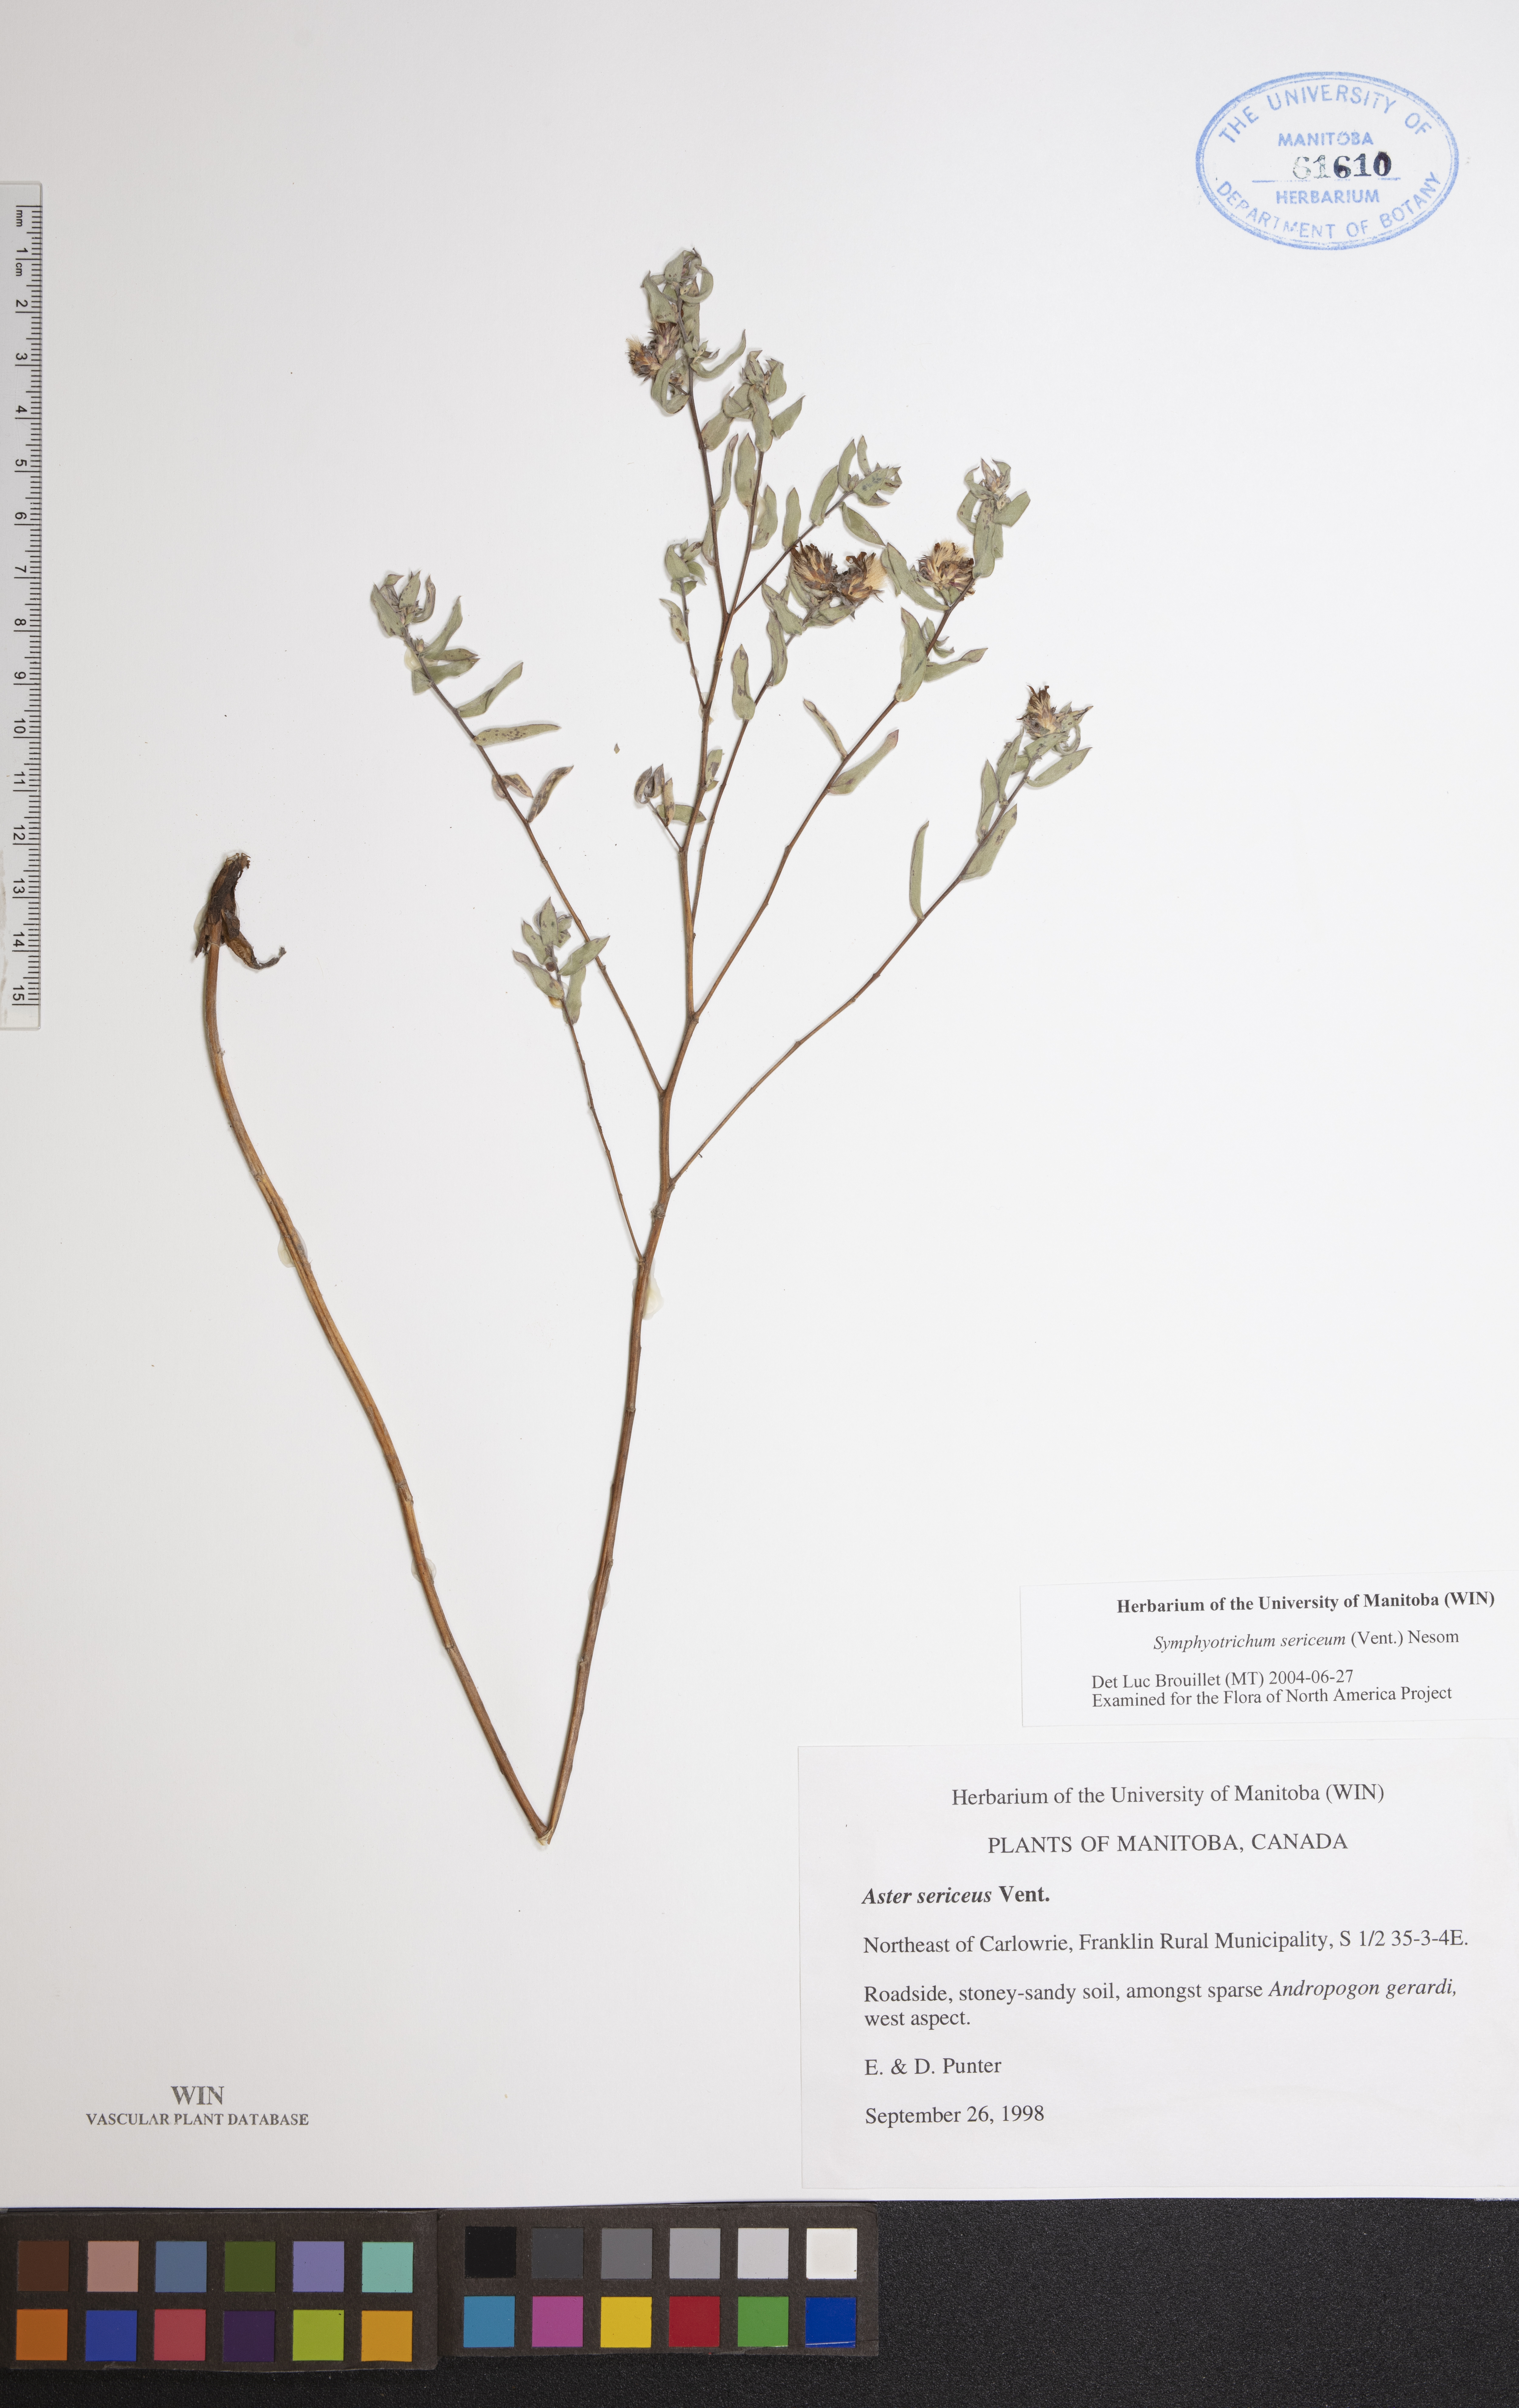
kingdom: Plantae
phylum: Tracheophyta
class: Magnoliopsida
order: Asterales
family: Asteraceae
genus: Symphyotrichum
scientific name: Symphyotrichum sericeum
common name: Silky aster
